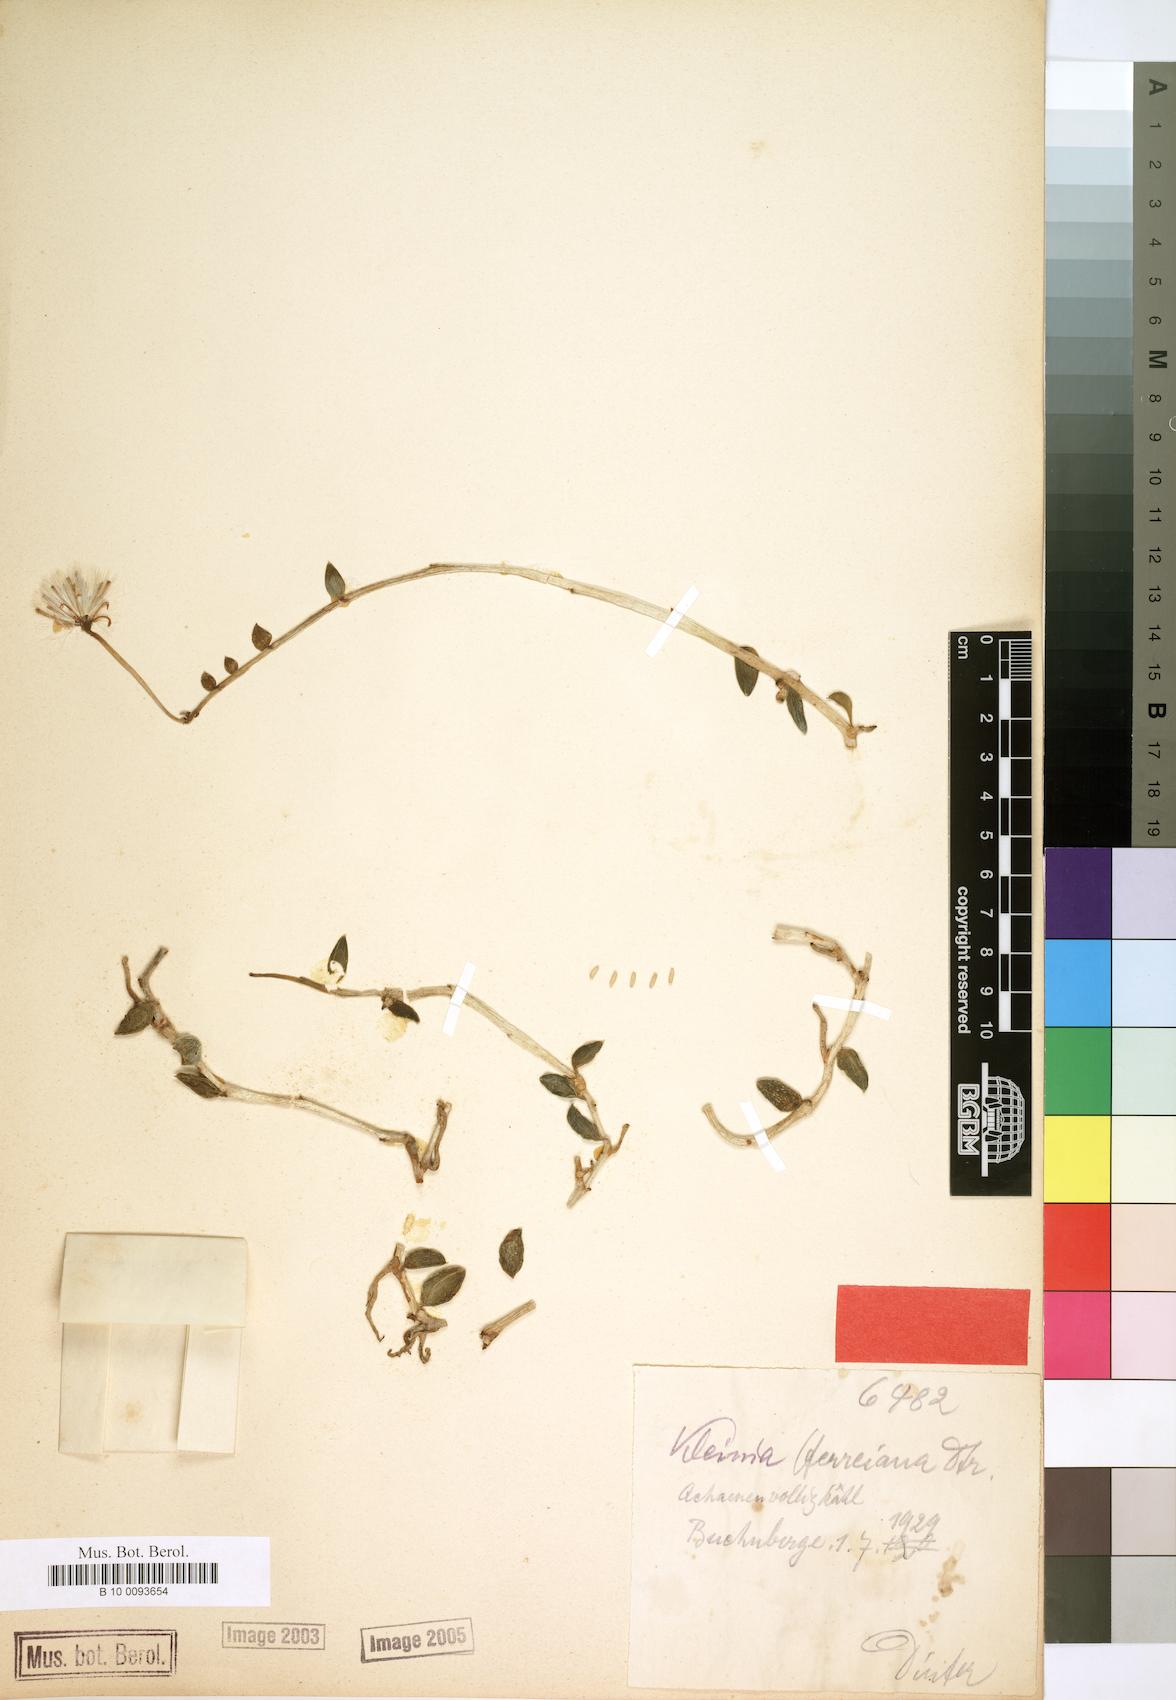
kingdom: Plantae
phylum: Tracheophyta
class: Magnoliopsida
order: Asterales
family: Asteraceae
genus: Kleinia
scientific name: Kleinia herreiana
